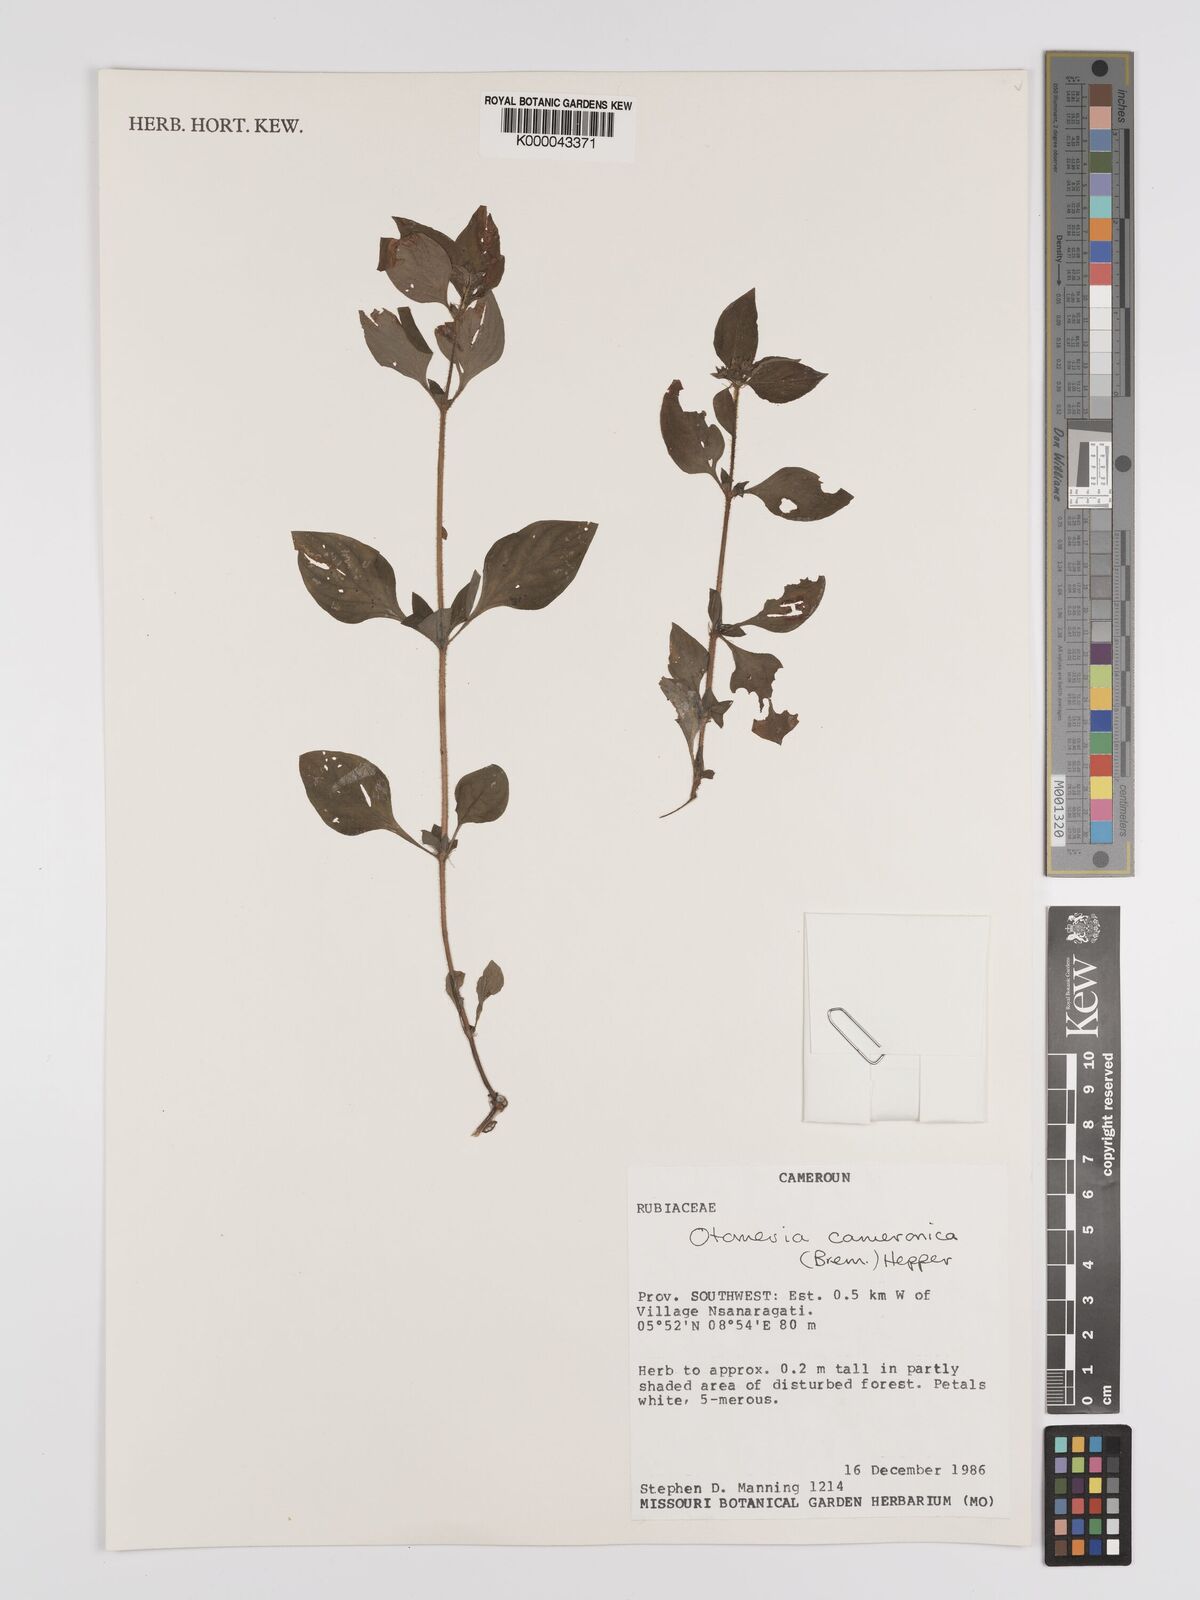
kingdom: Plantae
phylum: Tracheophyta
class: Magnoliopsida
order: Gentianales
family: Rubiaceae
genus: Otomeria
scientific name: Otomeria cameronica
